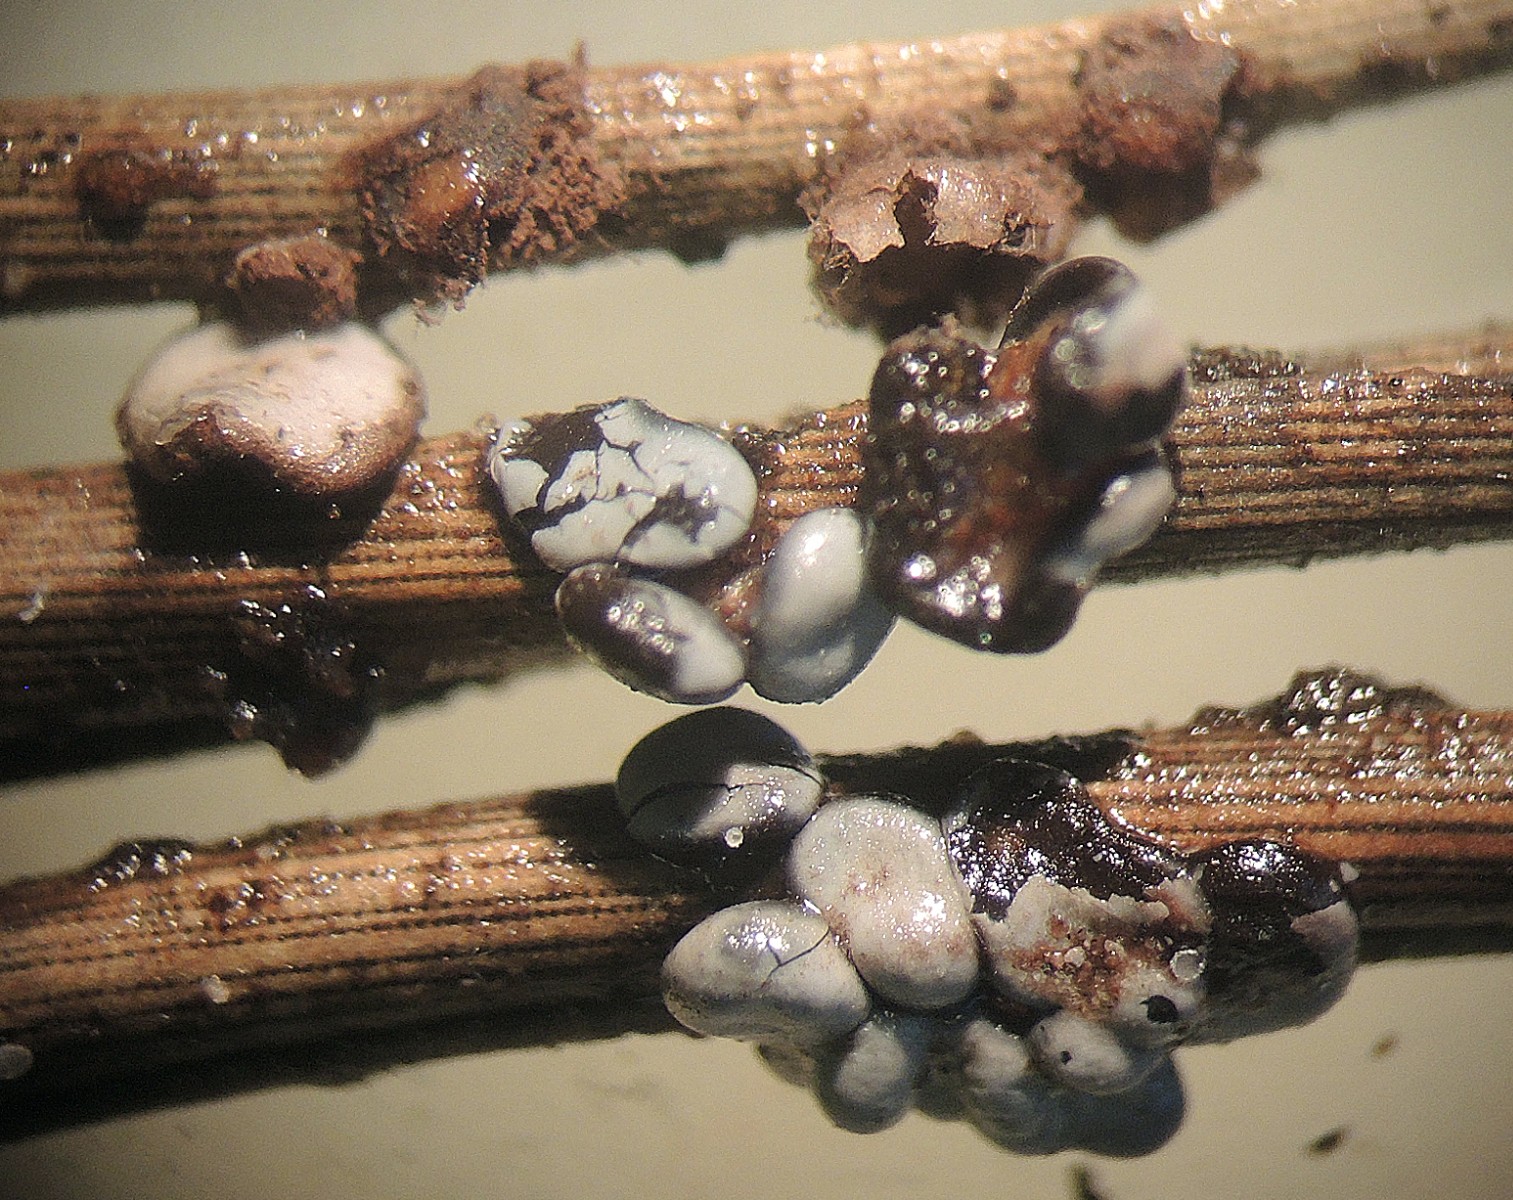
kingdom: Protozoa
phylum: Mycetozoa
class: Myxomycetes
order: Physarales
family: Didymiaceae
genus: Diderma
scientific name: Diderma hemisphaericum
